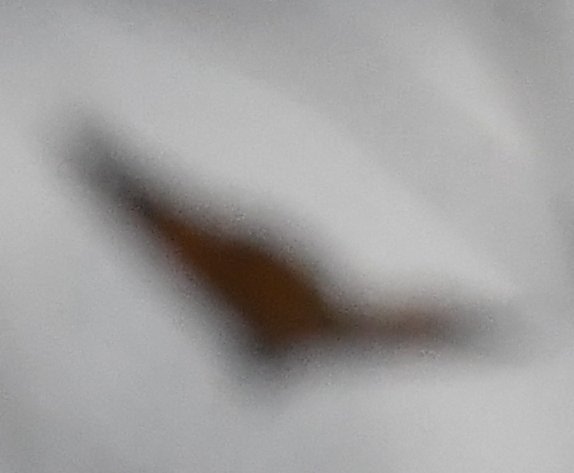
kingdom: Animalia
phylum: Arthropoda
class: Insecta
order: Lepidoptera
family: Nymphalidae
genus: Danaus
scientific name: Danaus plexippus
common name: Monarch
